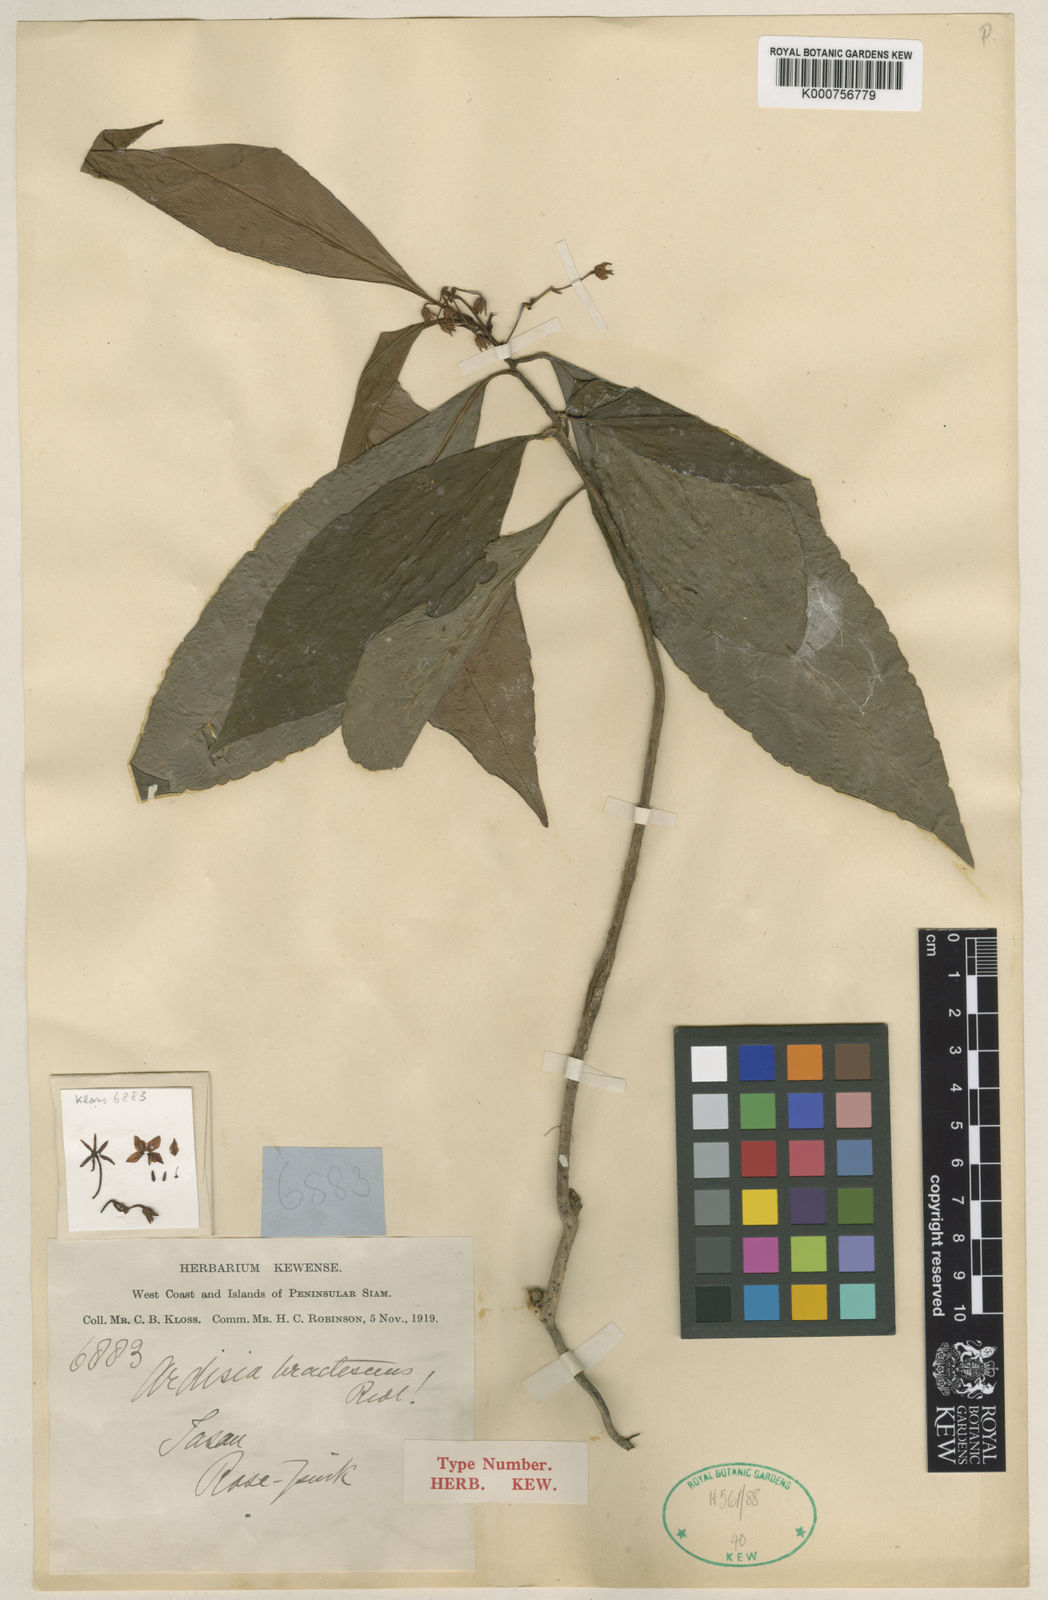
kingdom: Plantae
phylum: Tracheophyta
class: Magnoliopsida
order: Ericales
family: Primulaceae
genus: Ardisia
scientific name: Ardisia bractescens
